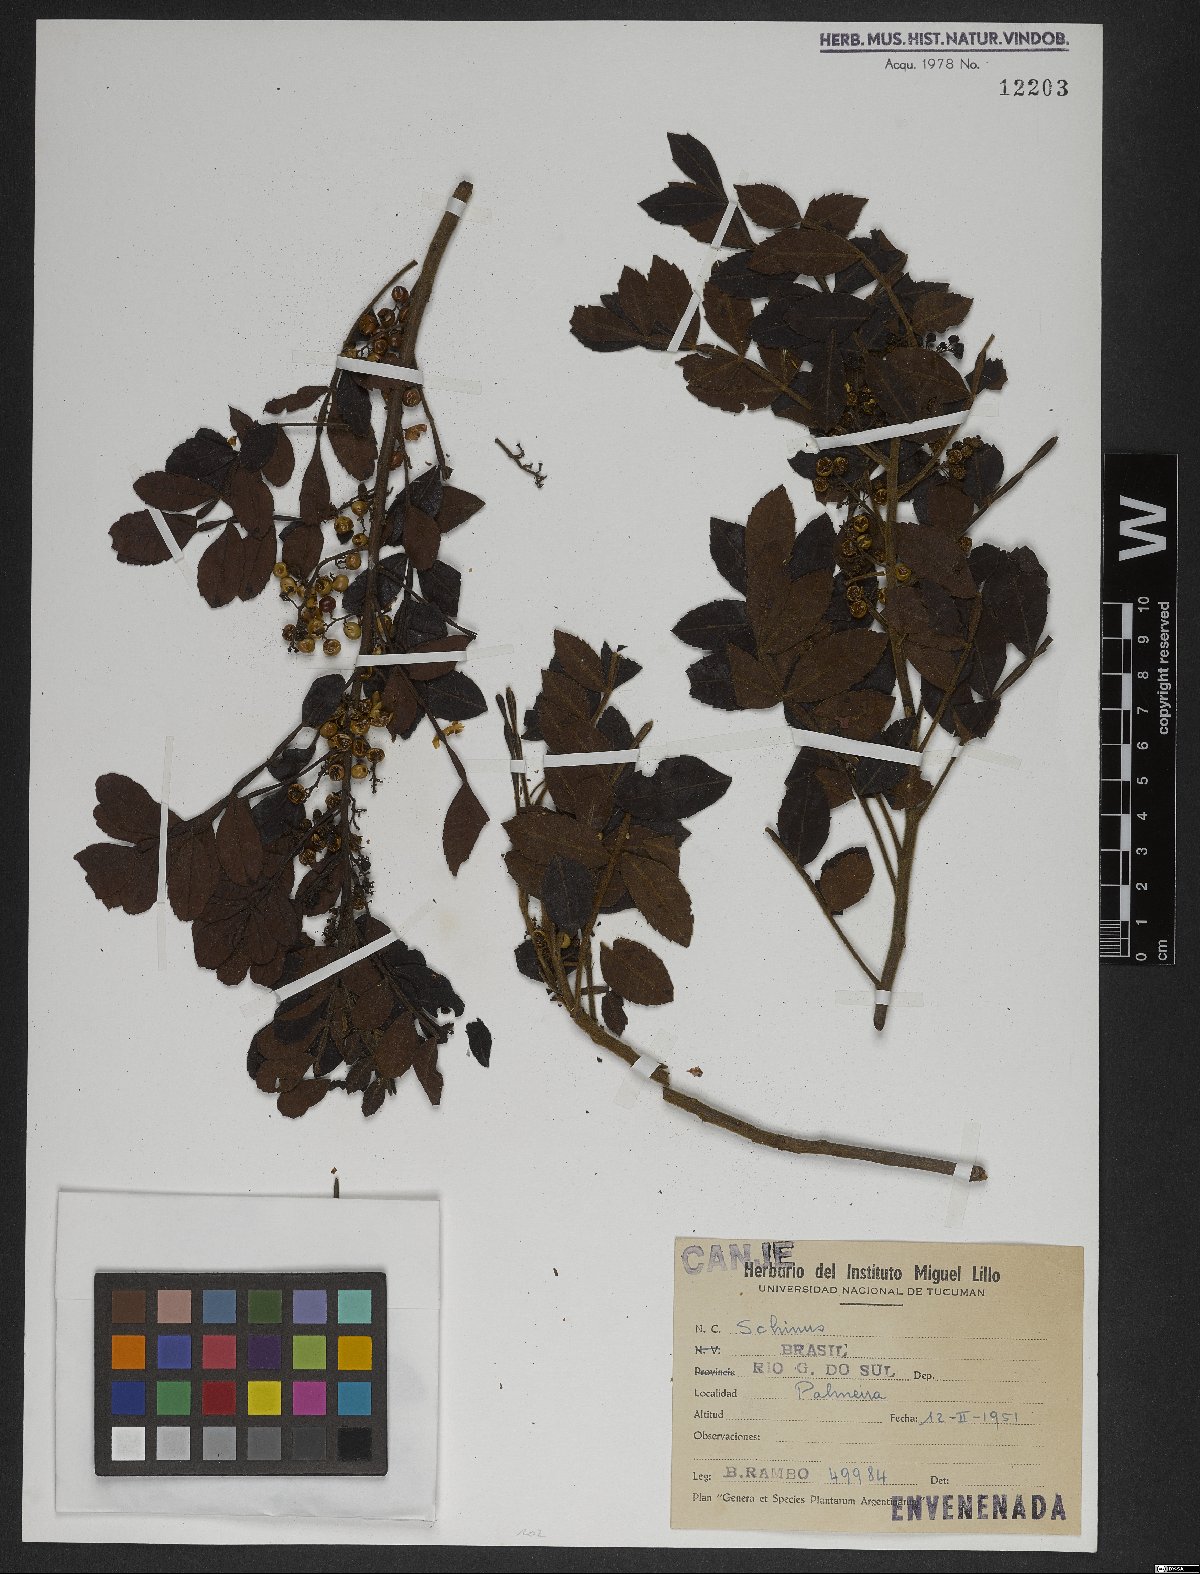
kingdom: Plantae
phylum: Tracheophyta
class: Magnoliopsida
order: Sapindales
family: Anacardiaceae
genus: Schinus
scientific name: Schinus
